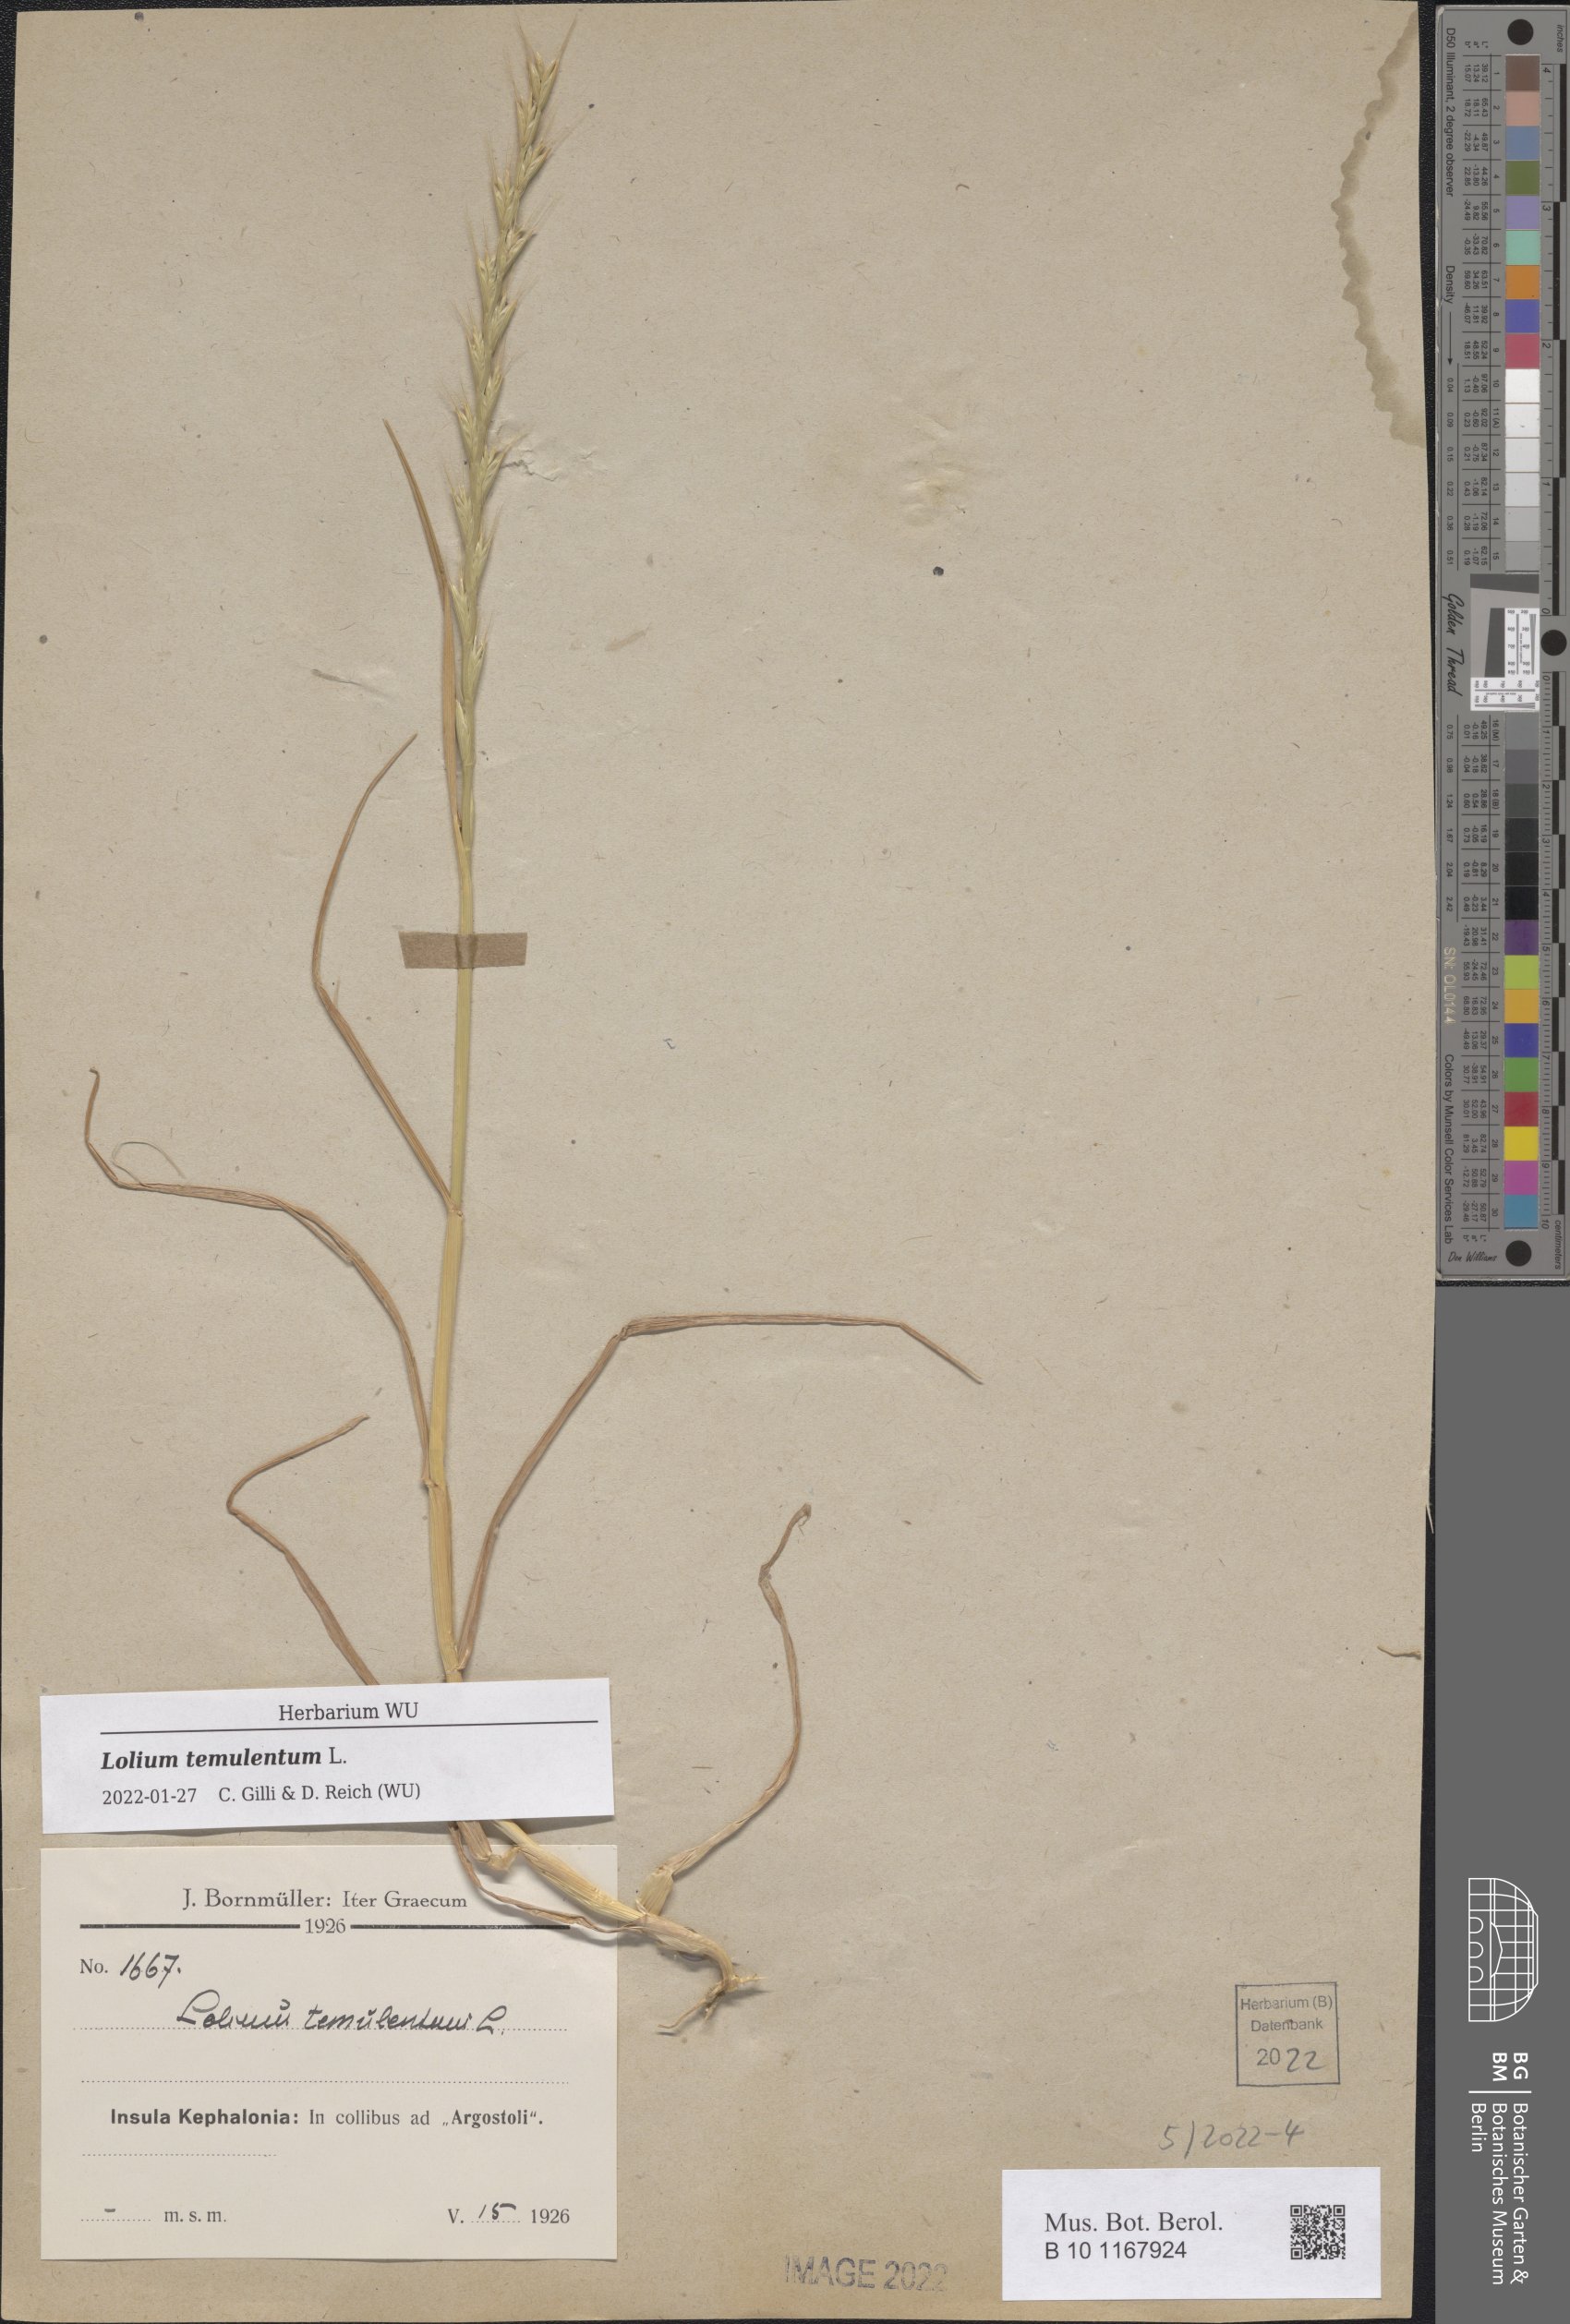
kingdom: Plantae
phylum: Tracheophyta
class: Liliopsida
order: Poales
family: Poaceae
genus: Lolium
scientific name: Lolium temulentum
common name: Darnel
